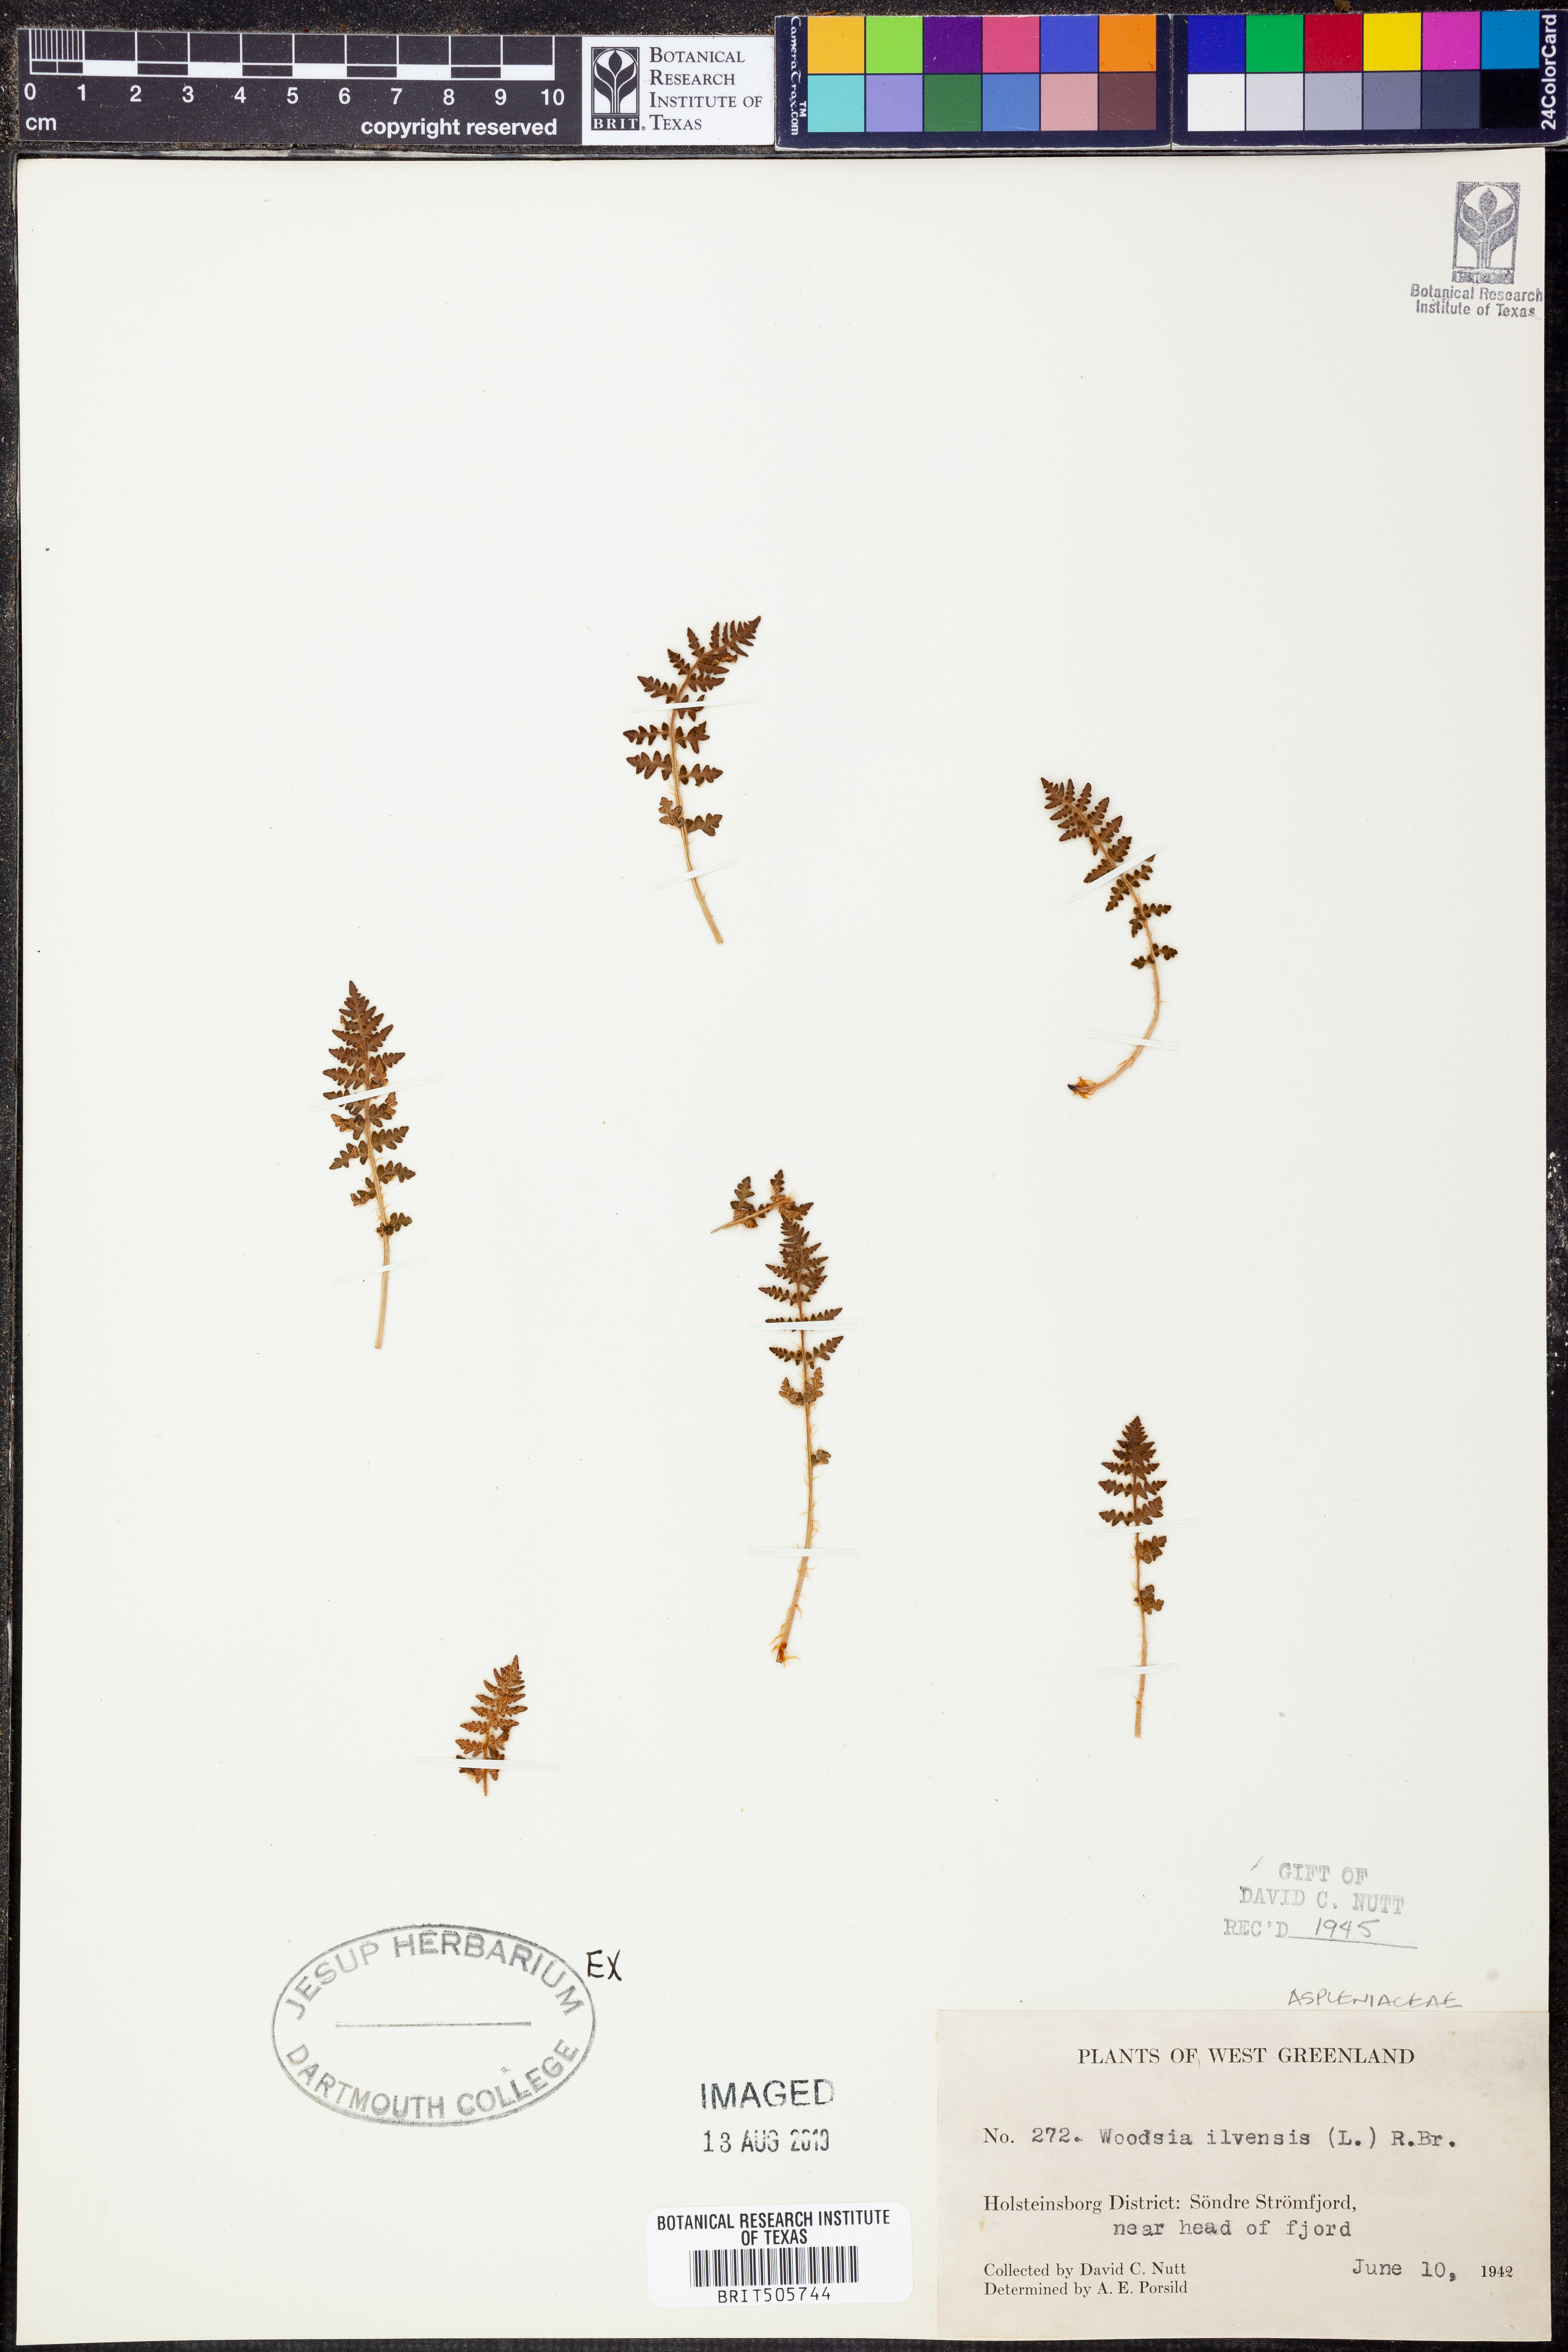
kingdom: Plantae
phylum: Tracheophyta
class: Polypodiopsida
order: Polypodiales
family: Woodsiaceae
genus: Woodsia
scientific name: Woodsia ilvensis
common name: Fragrant woodsia
